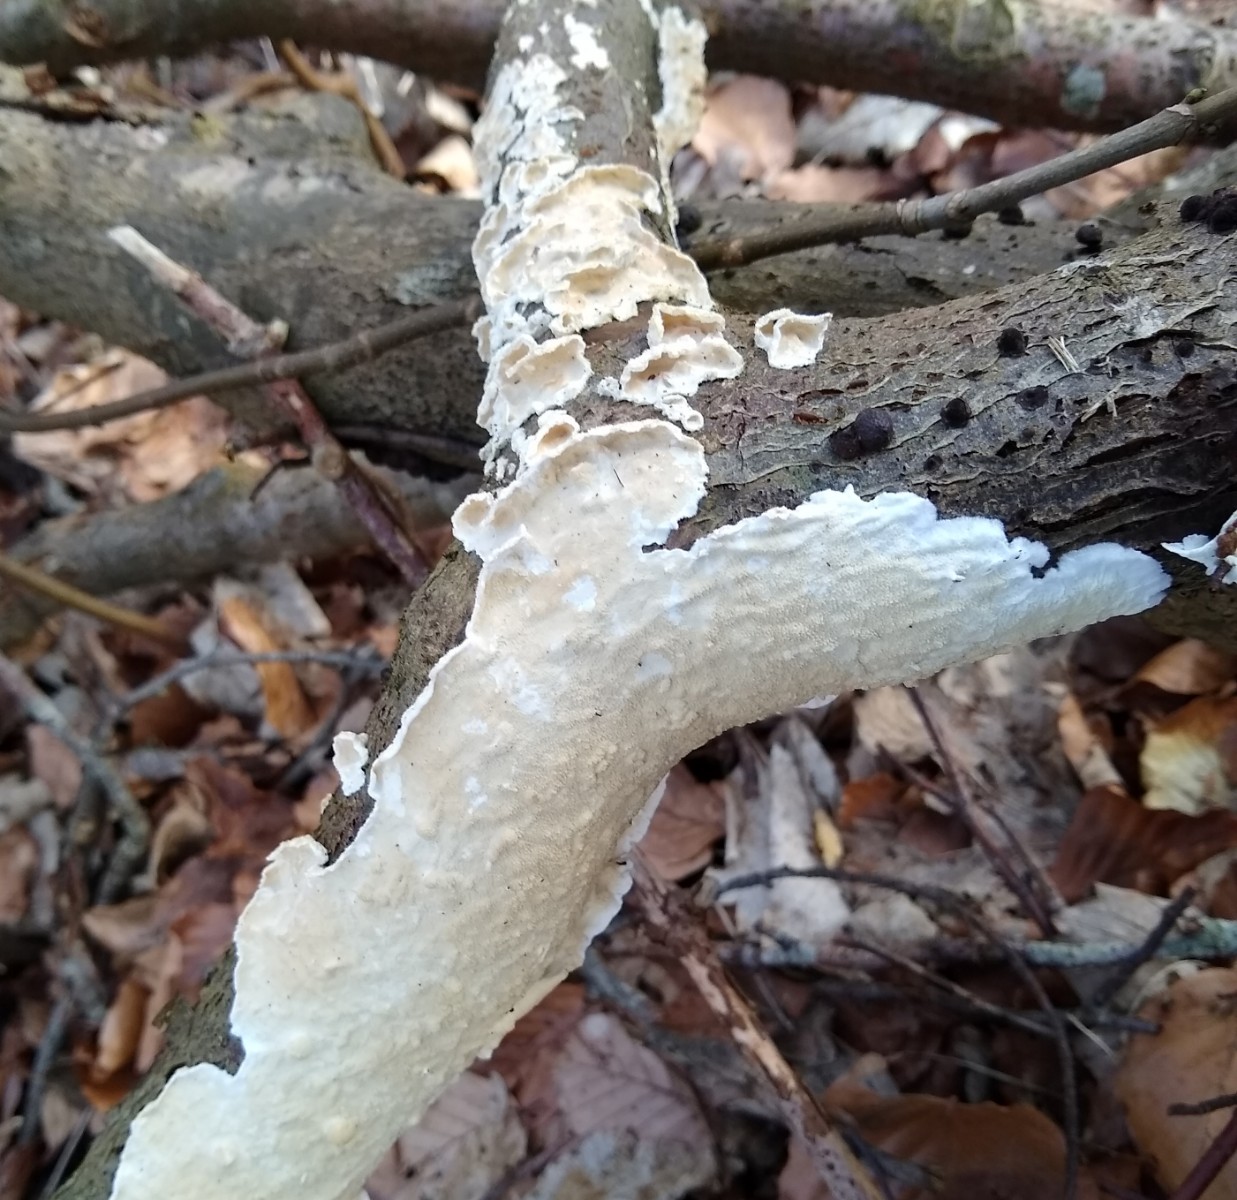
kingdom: Fungi
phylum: Basidiomycota
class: Agaricomycetes
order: Polyporales
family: Irpicaceae
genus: Byssomerulius
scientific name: Byssomerulius corium
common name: læder-åresvamp
